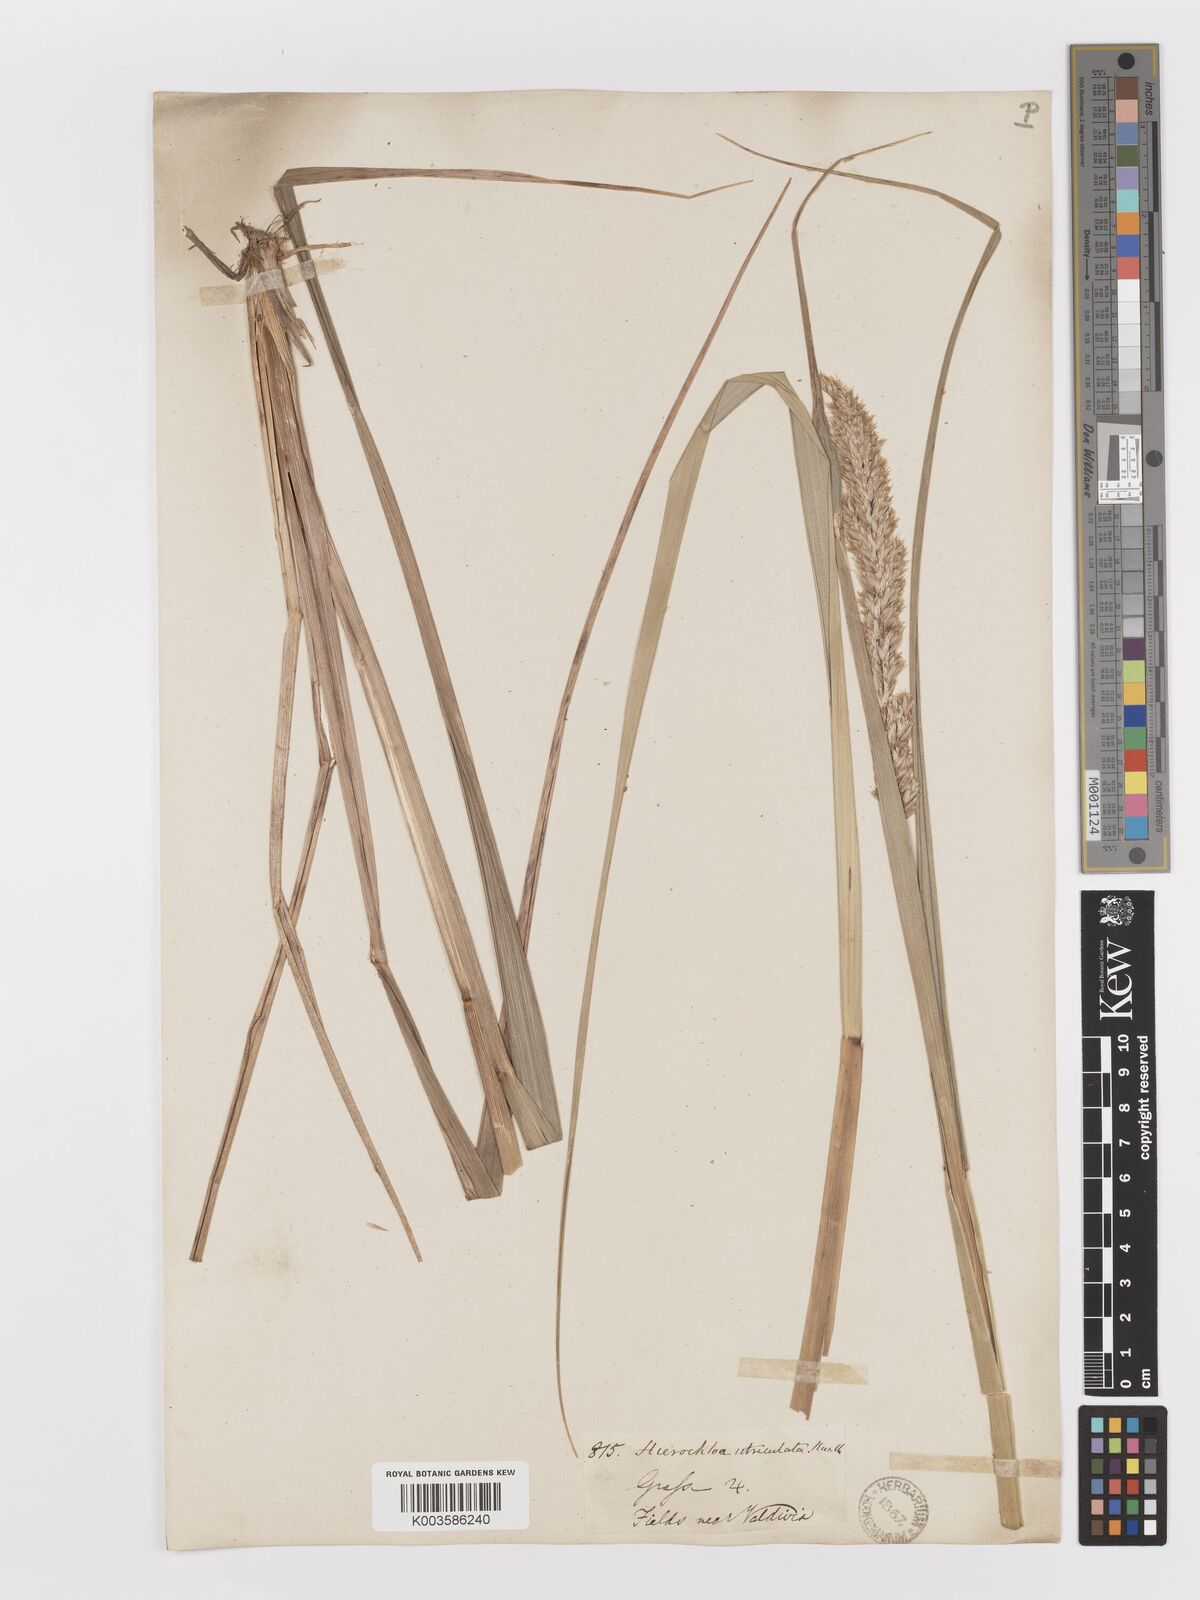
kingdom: Plantae
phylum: Tracheophyta
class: Liliopsida
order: Poales
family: Poaceae
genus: Anthoxanthum
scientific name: Anthoxanthum redolens
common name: Sweet holy grass
